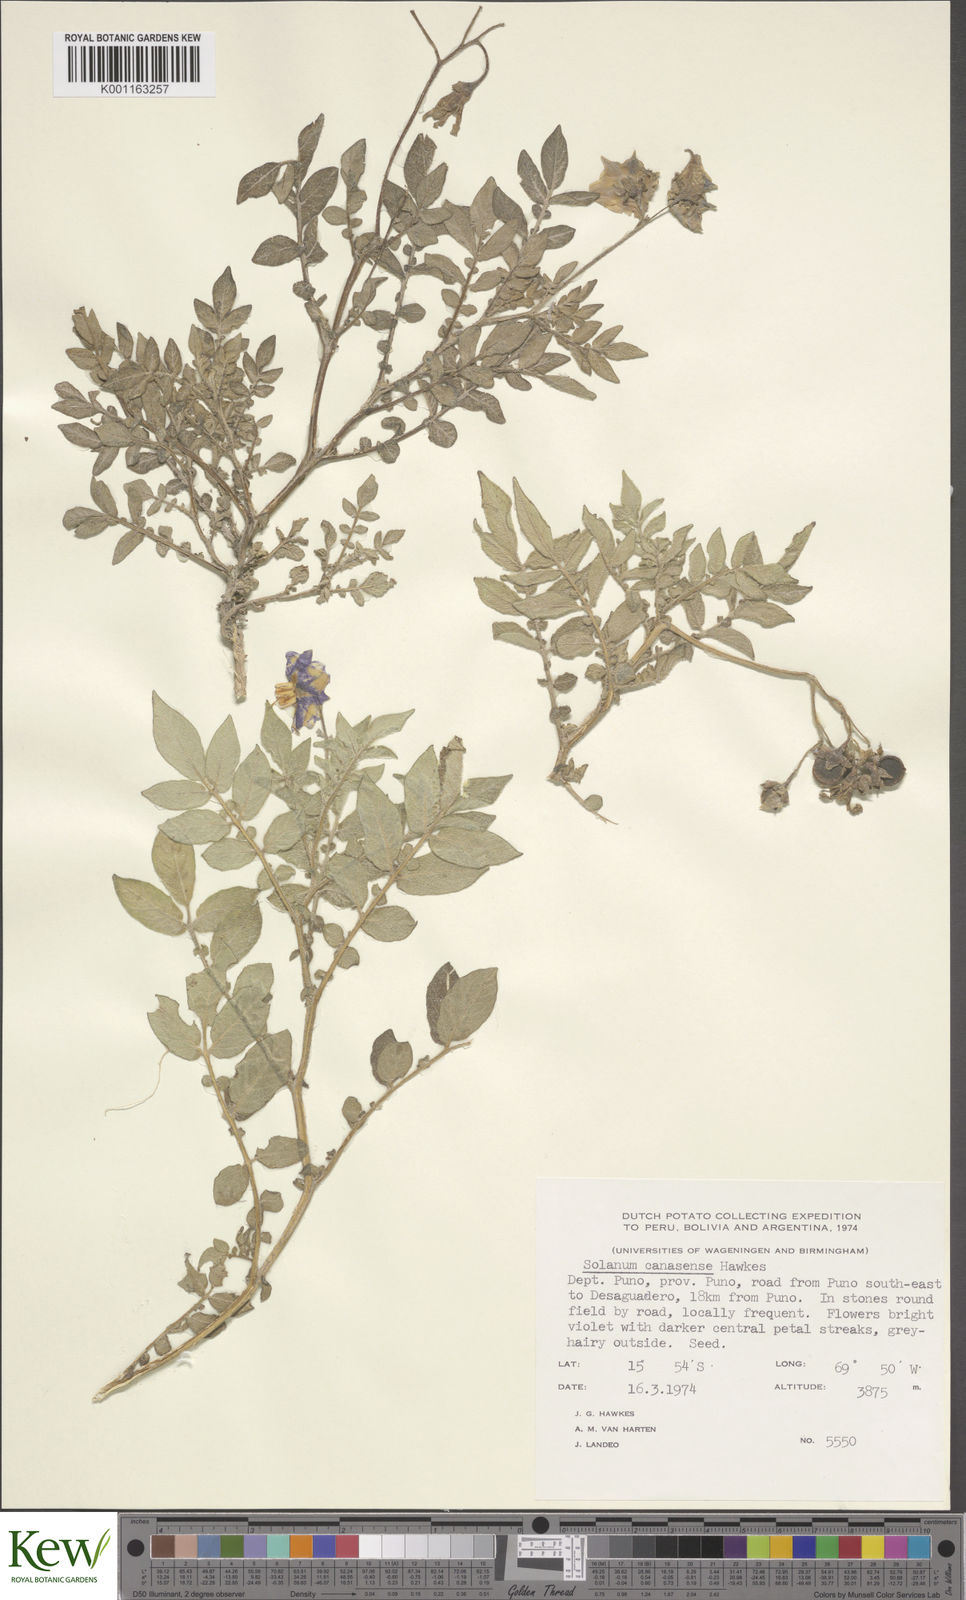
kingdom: Plantae
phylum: Tracheophyta
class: Magnoliopsida
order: Solanales
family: Solanaceae
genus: Solanum
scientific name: Solanum candolleanum
